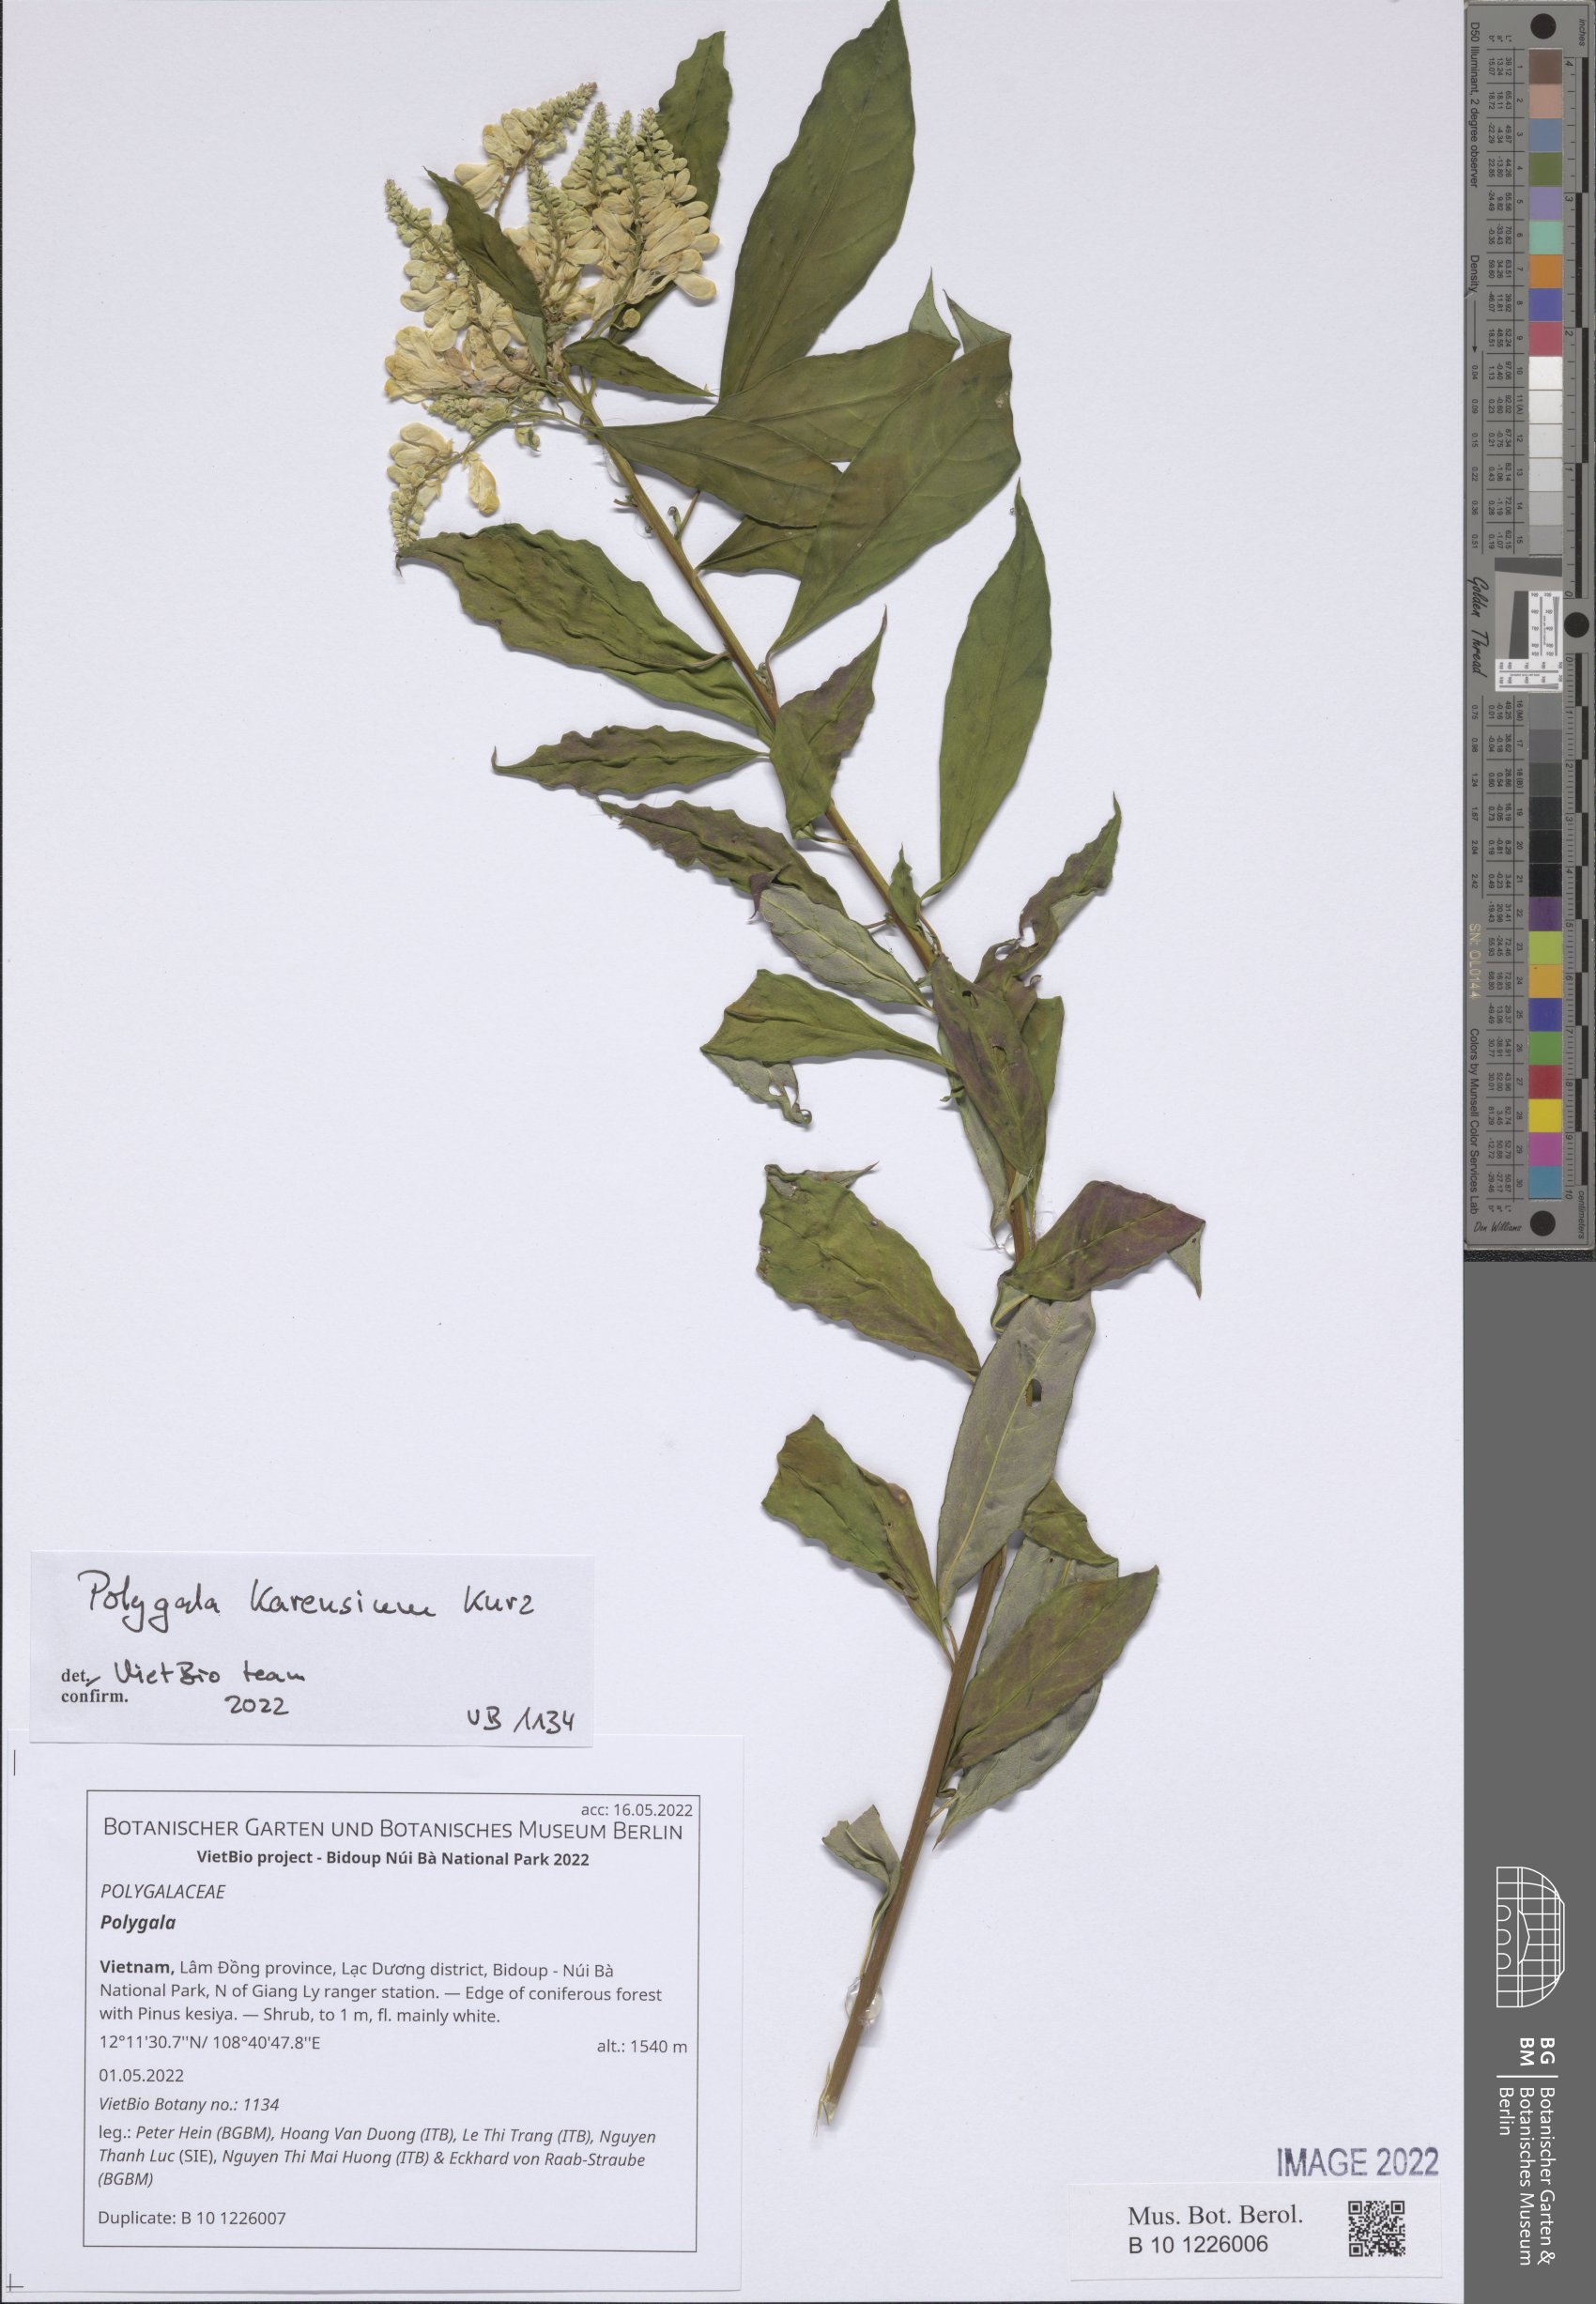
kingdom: Plantae
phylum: Tracheophyta
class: Magnoliopsida
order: Fabales
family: Polygalaceae
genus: Polygala
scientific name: Polygala
